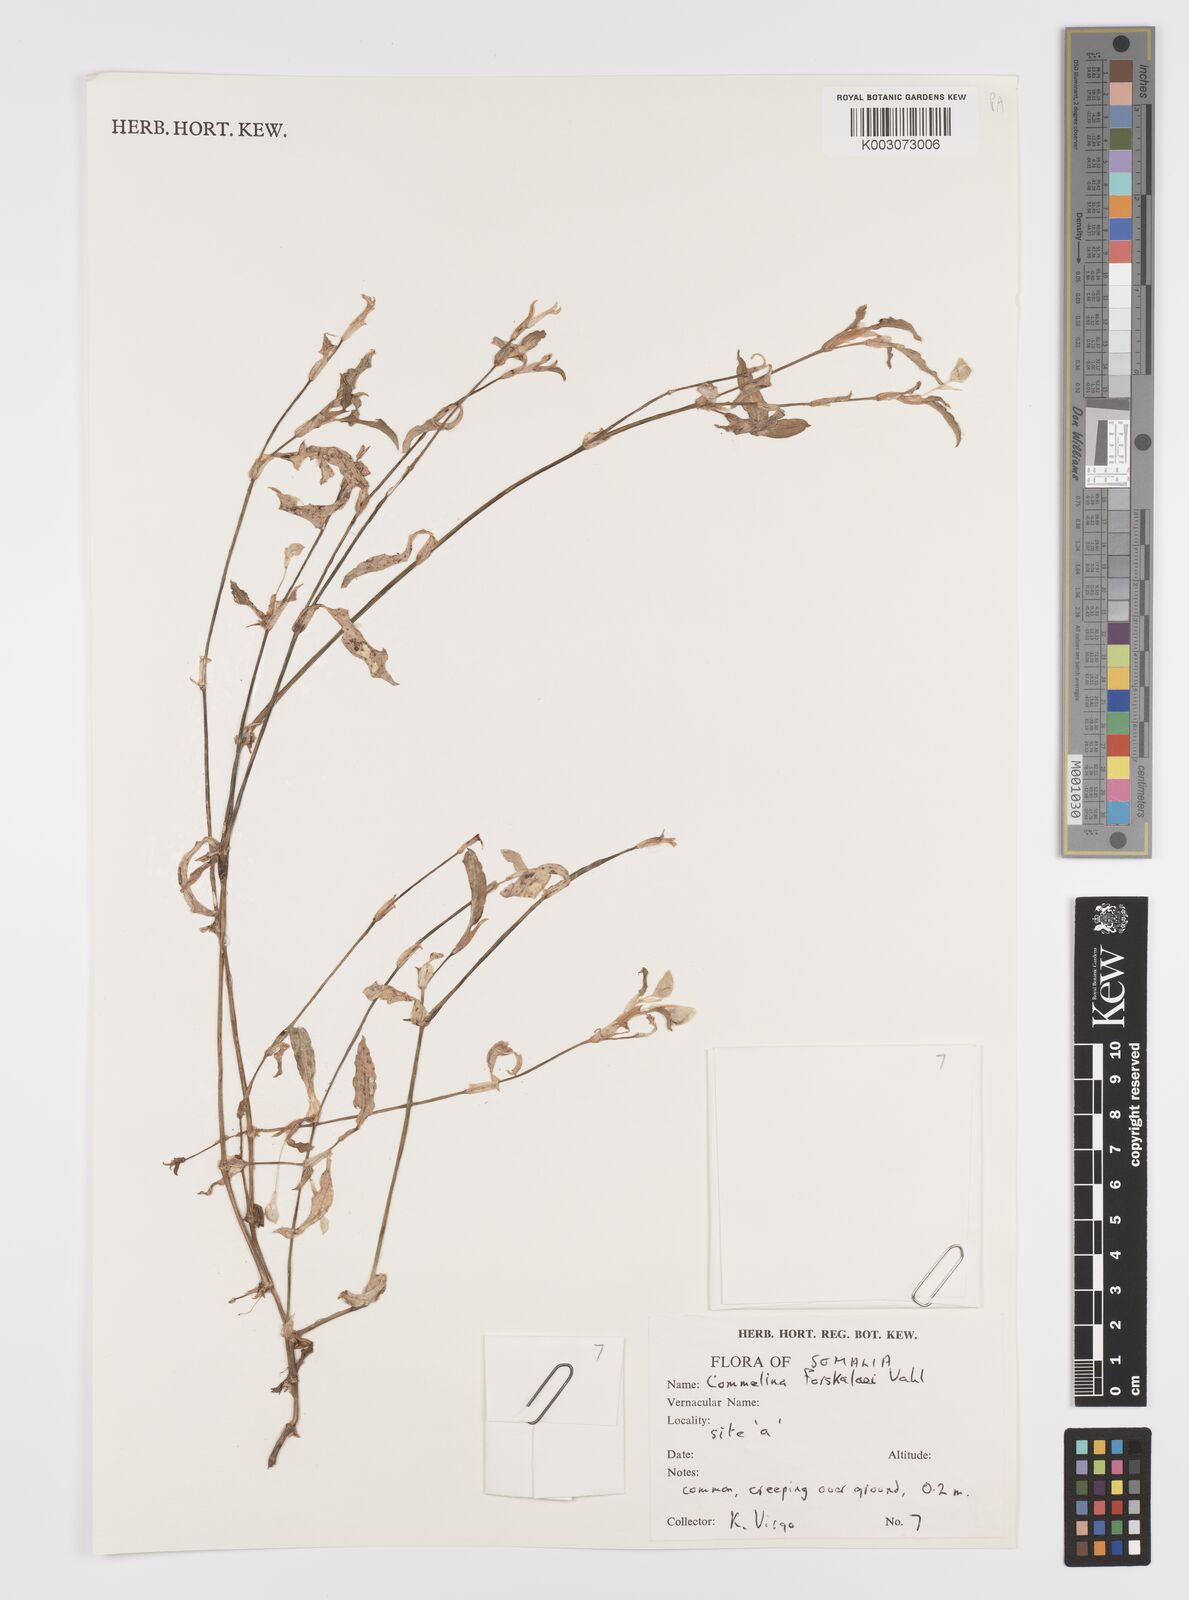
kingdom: Plantae
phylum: Tracheophyta
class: Liliopsida
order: Commelinales
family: Commelinaceae
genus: Commelina
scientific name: Commelina forskaolii
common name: Rat's ear
